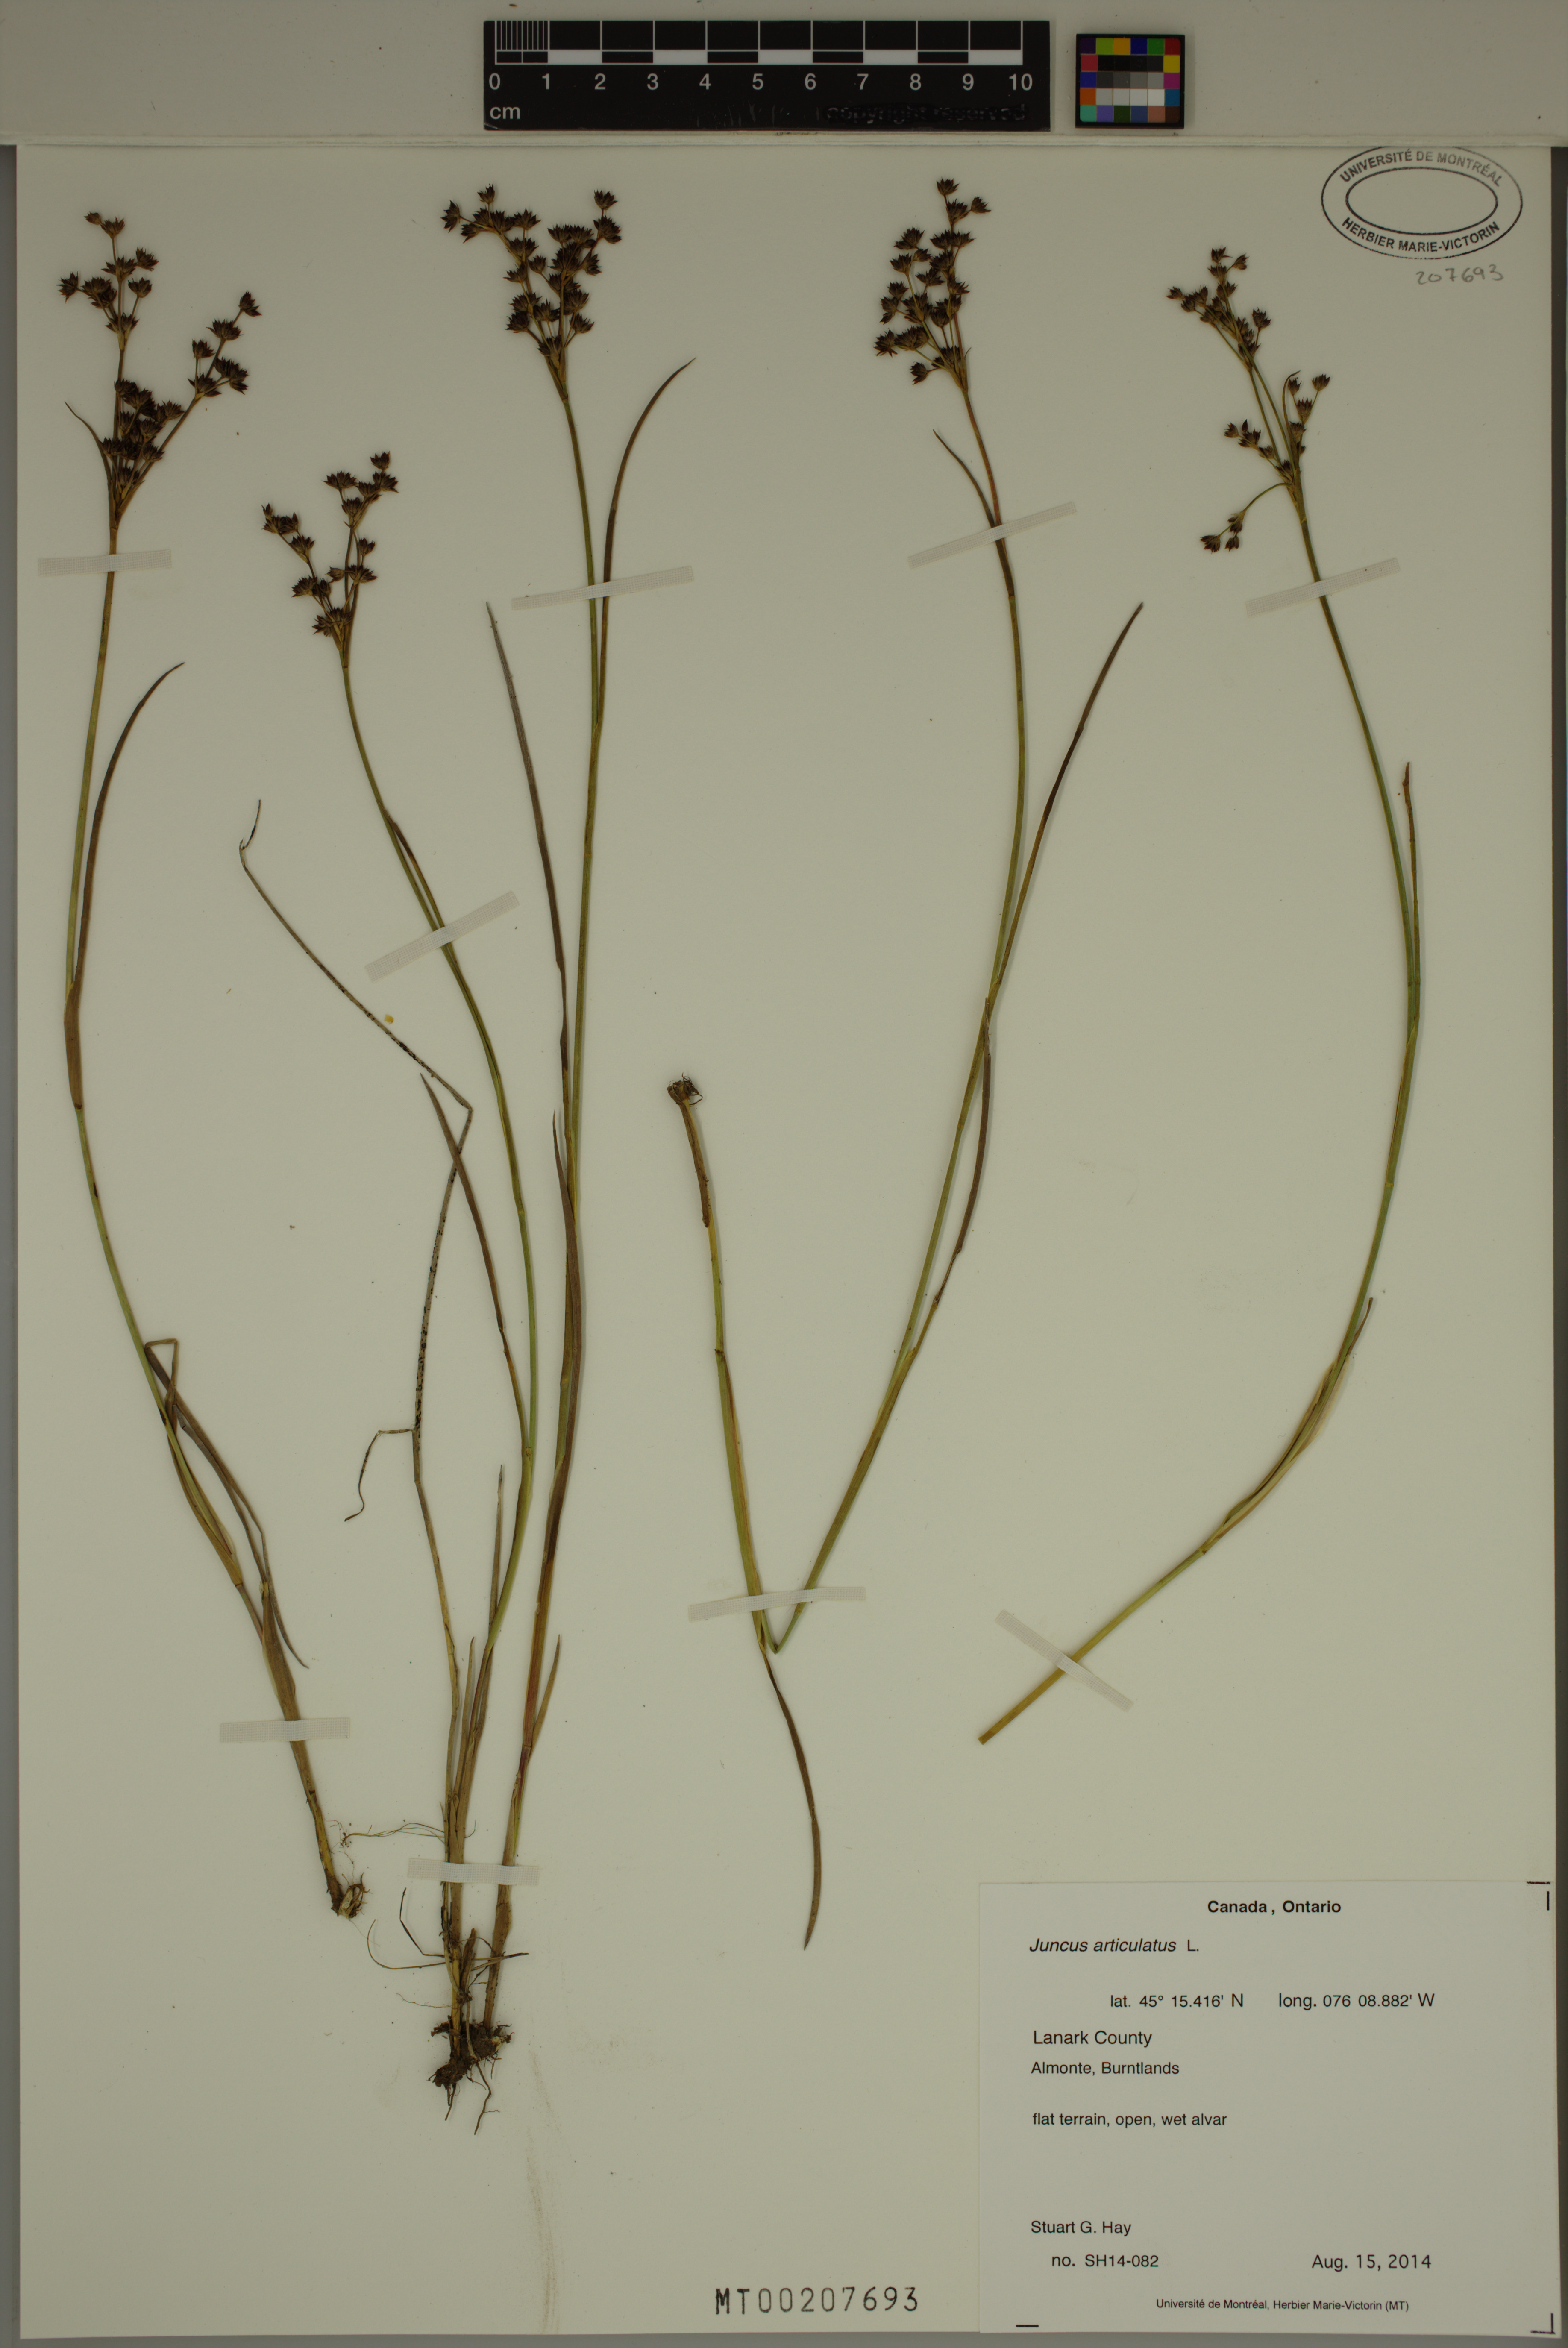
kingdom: Plantae
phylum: Tracheophyta
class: Liliopsida
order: Poales
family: Juncaceae
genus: Juncus
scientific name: Juncus articulatus
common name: Jointed rush
